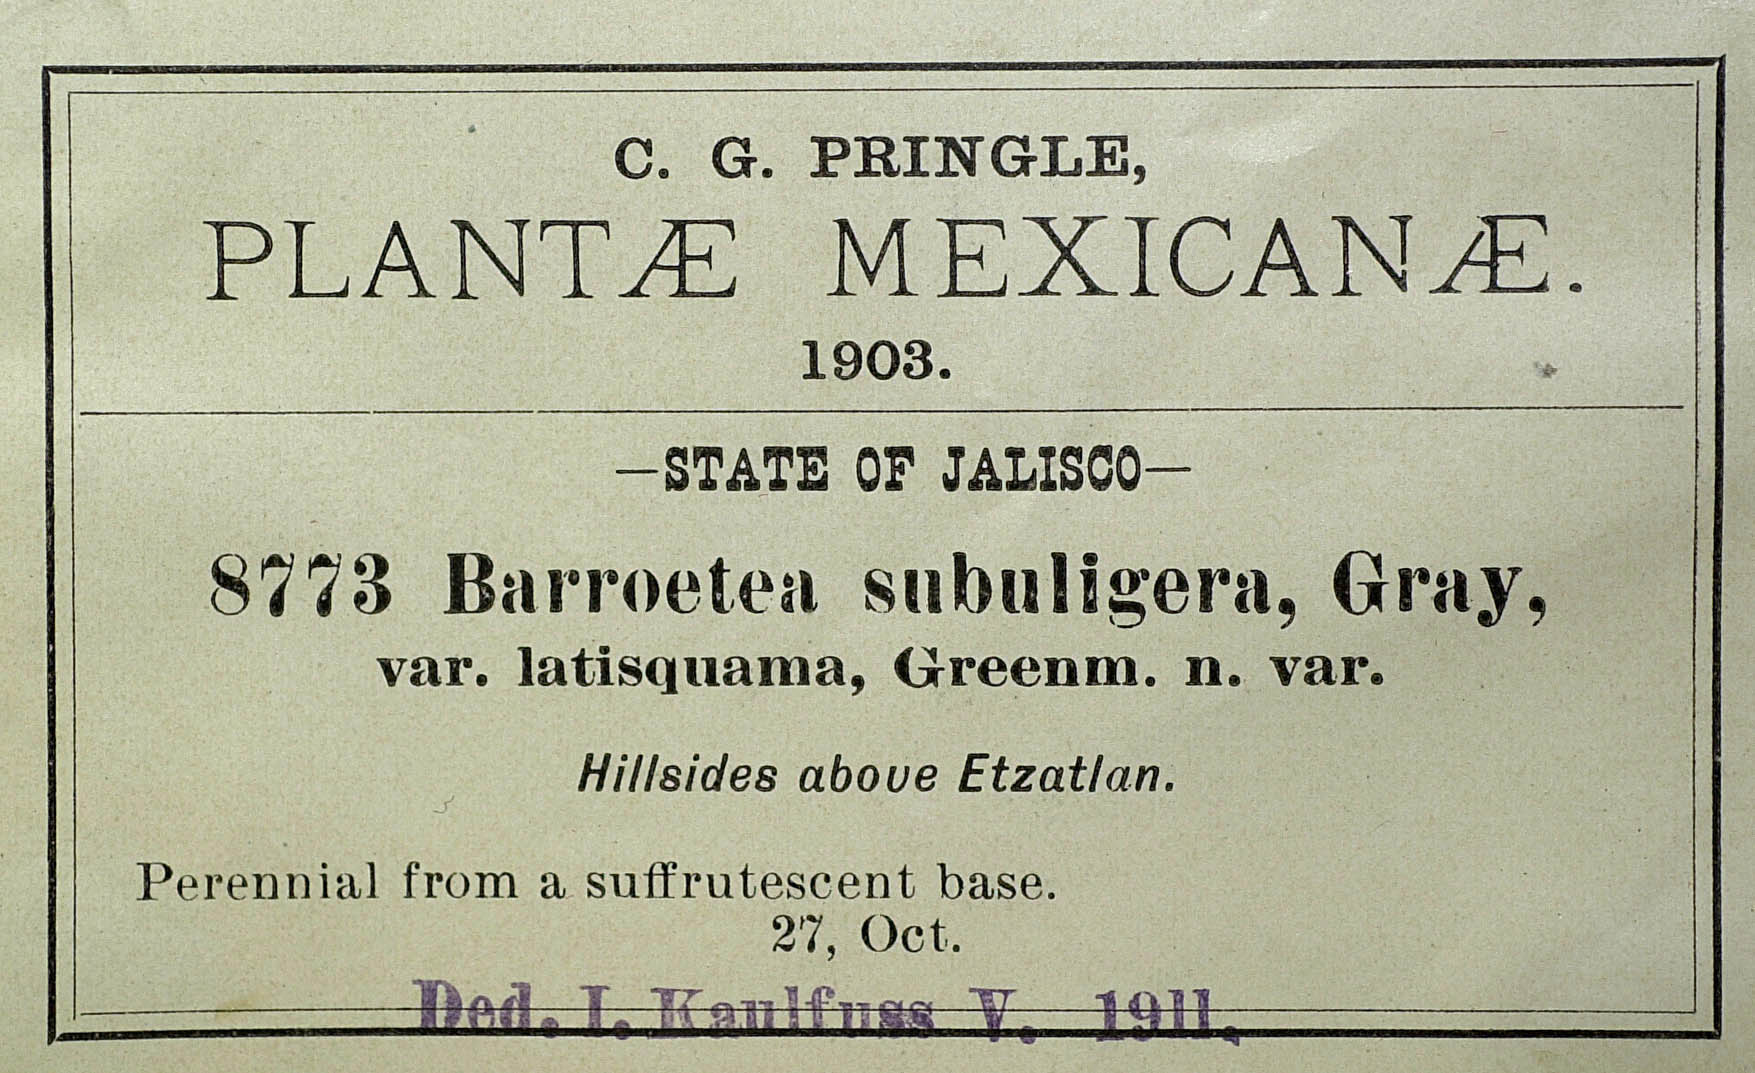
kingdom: Plantae
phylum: Tracheophyta
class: Magnoliopsida
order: Asterales
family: Asteraceae
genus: Brickellia
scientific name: Brickellia subuligera
